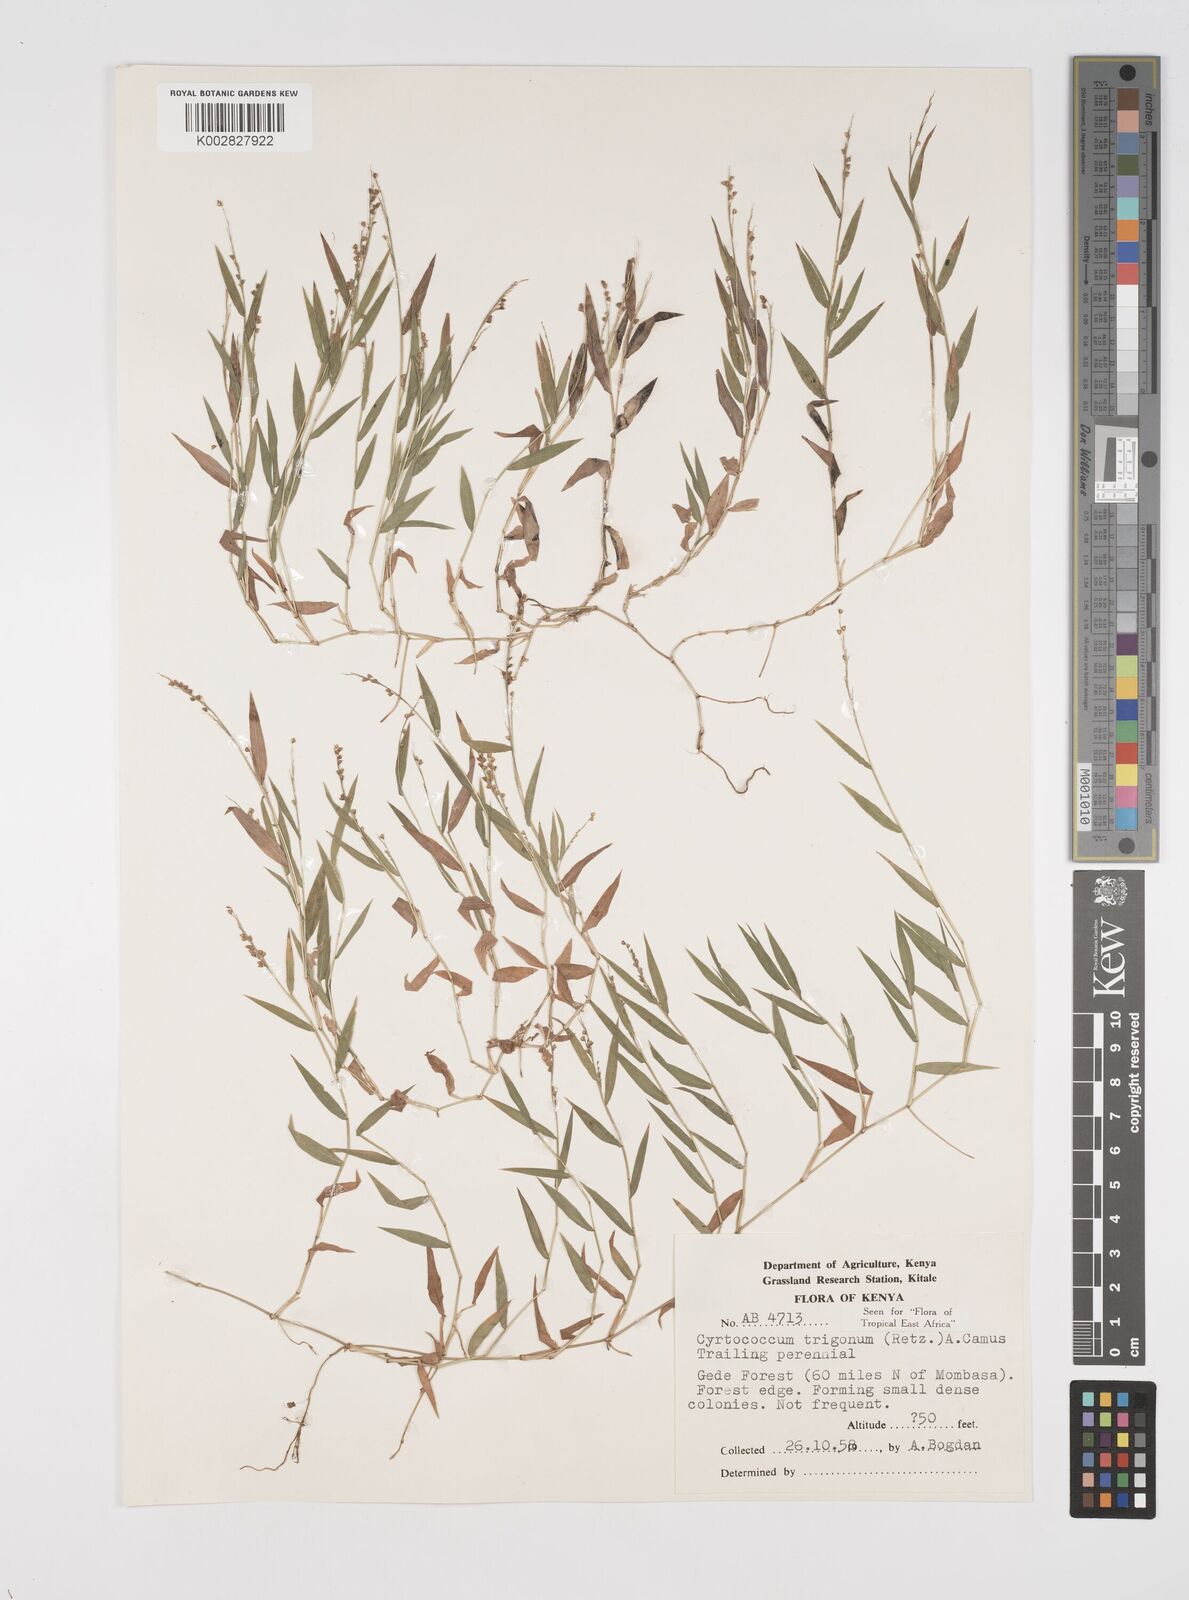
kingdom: Plantae
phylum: Tracheophyta
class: Liliopsida
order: Poales
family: Poaceae
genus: Cyrtococcum
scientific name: Cyrtococcum trigonum
